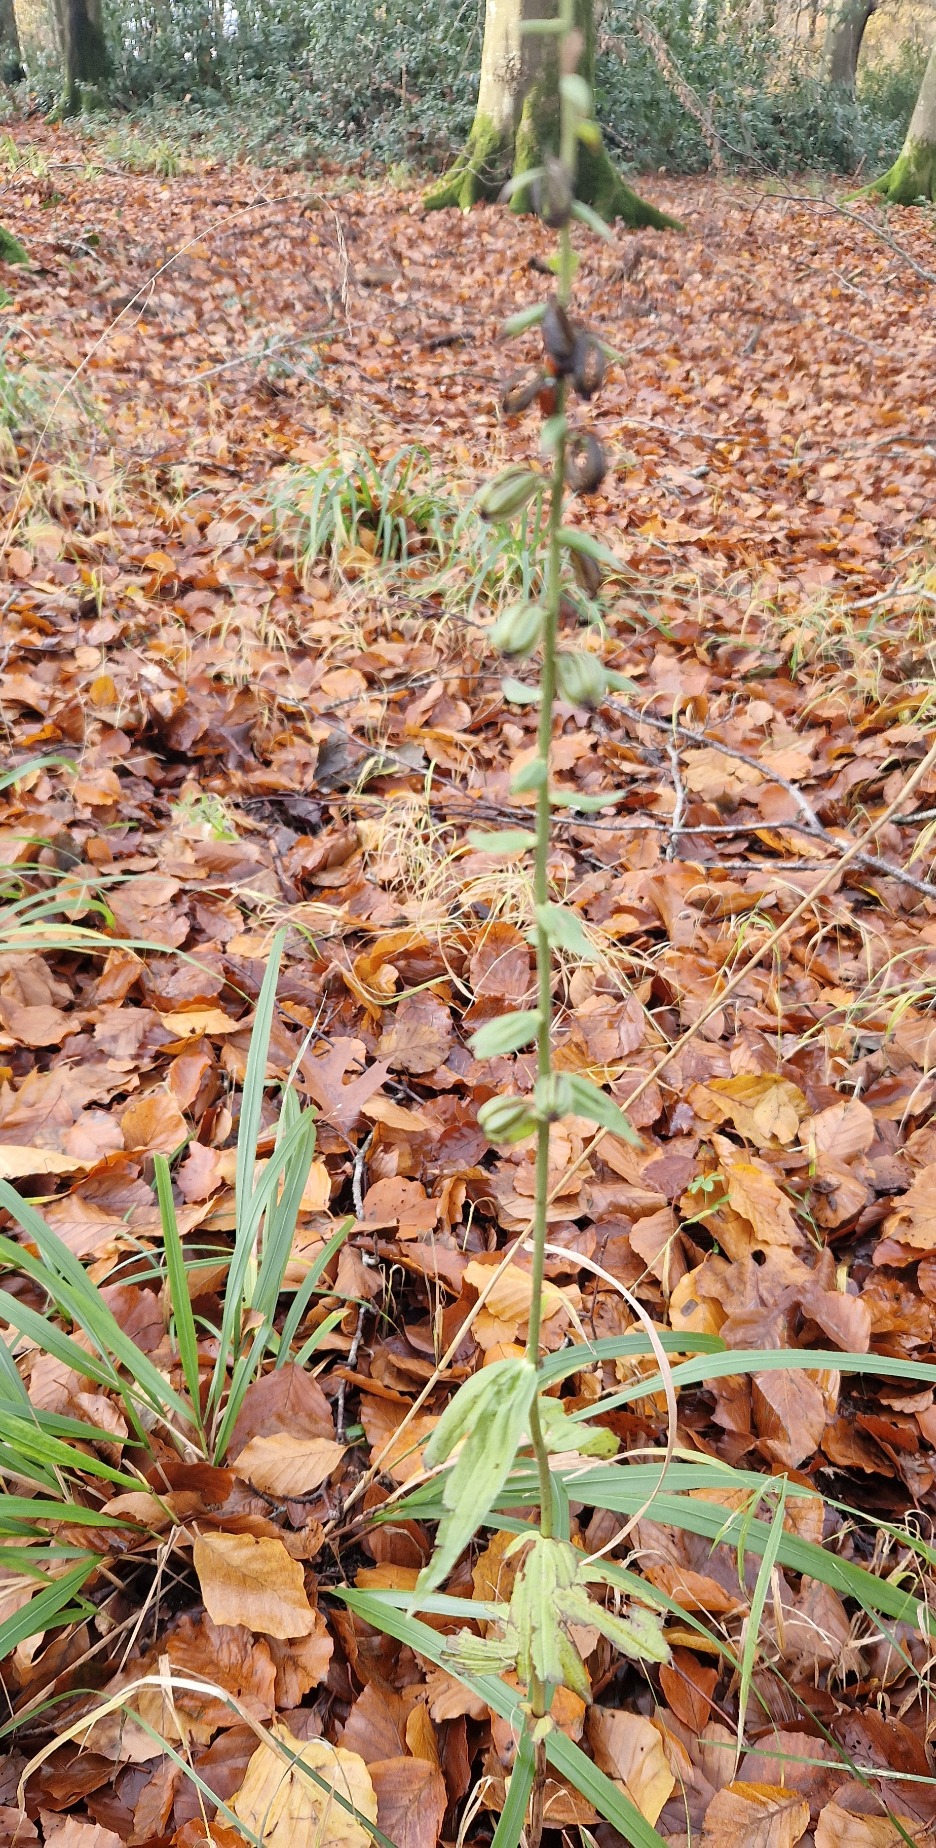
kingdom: Plantae
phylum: Tracheophyta
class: Liliopsida
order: Asparagales
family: Orchidaceae
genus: Epipactis
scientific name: Epipactis helleborine
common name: Skov-hullæbe
